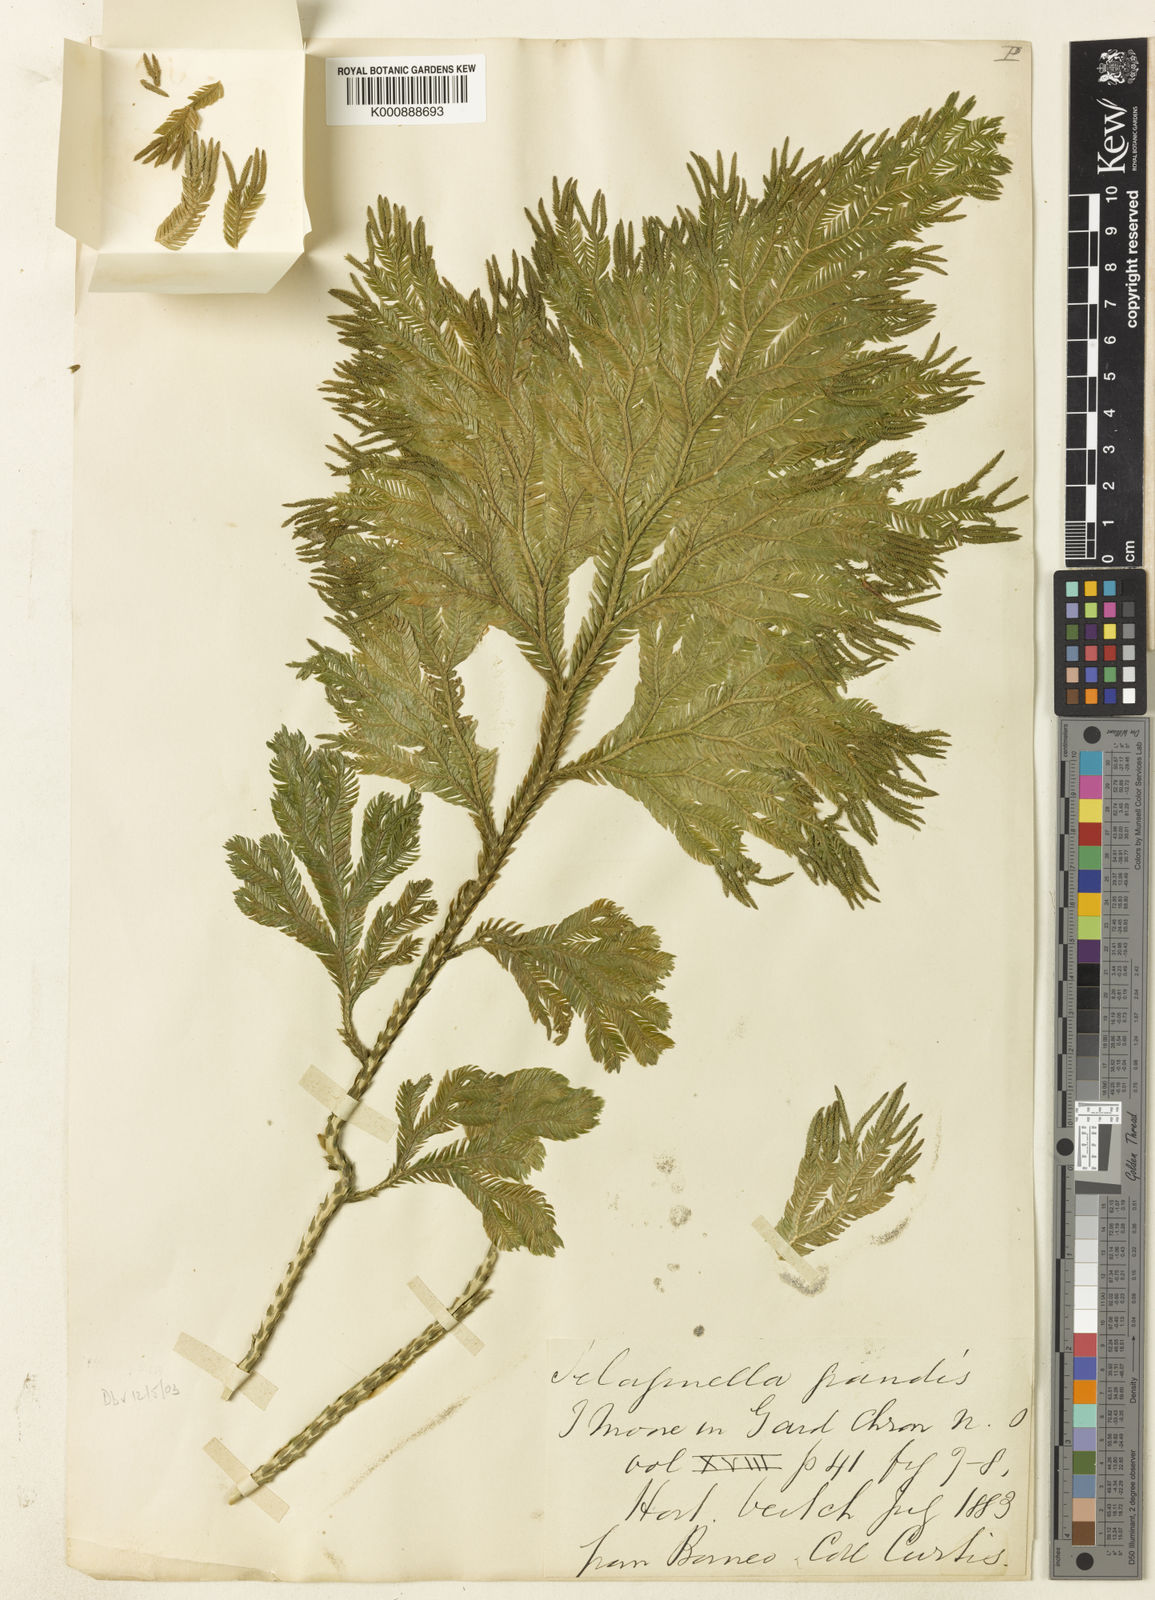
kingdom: Plantae
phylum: Tracheophyta
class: Lycopodiopsida
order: Selaginellales
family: Selaginellaceae
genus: Selaginella
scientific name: Selaginella grandis
